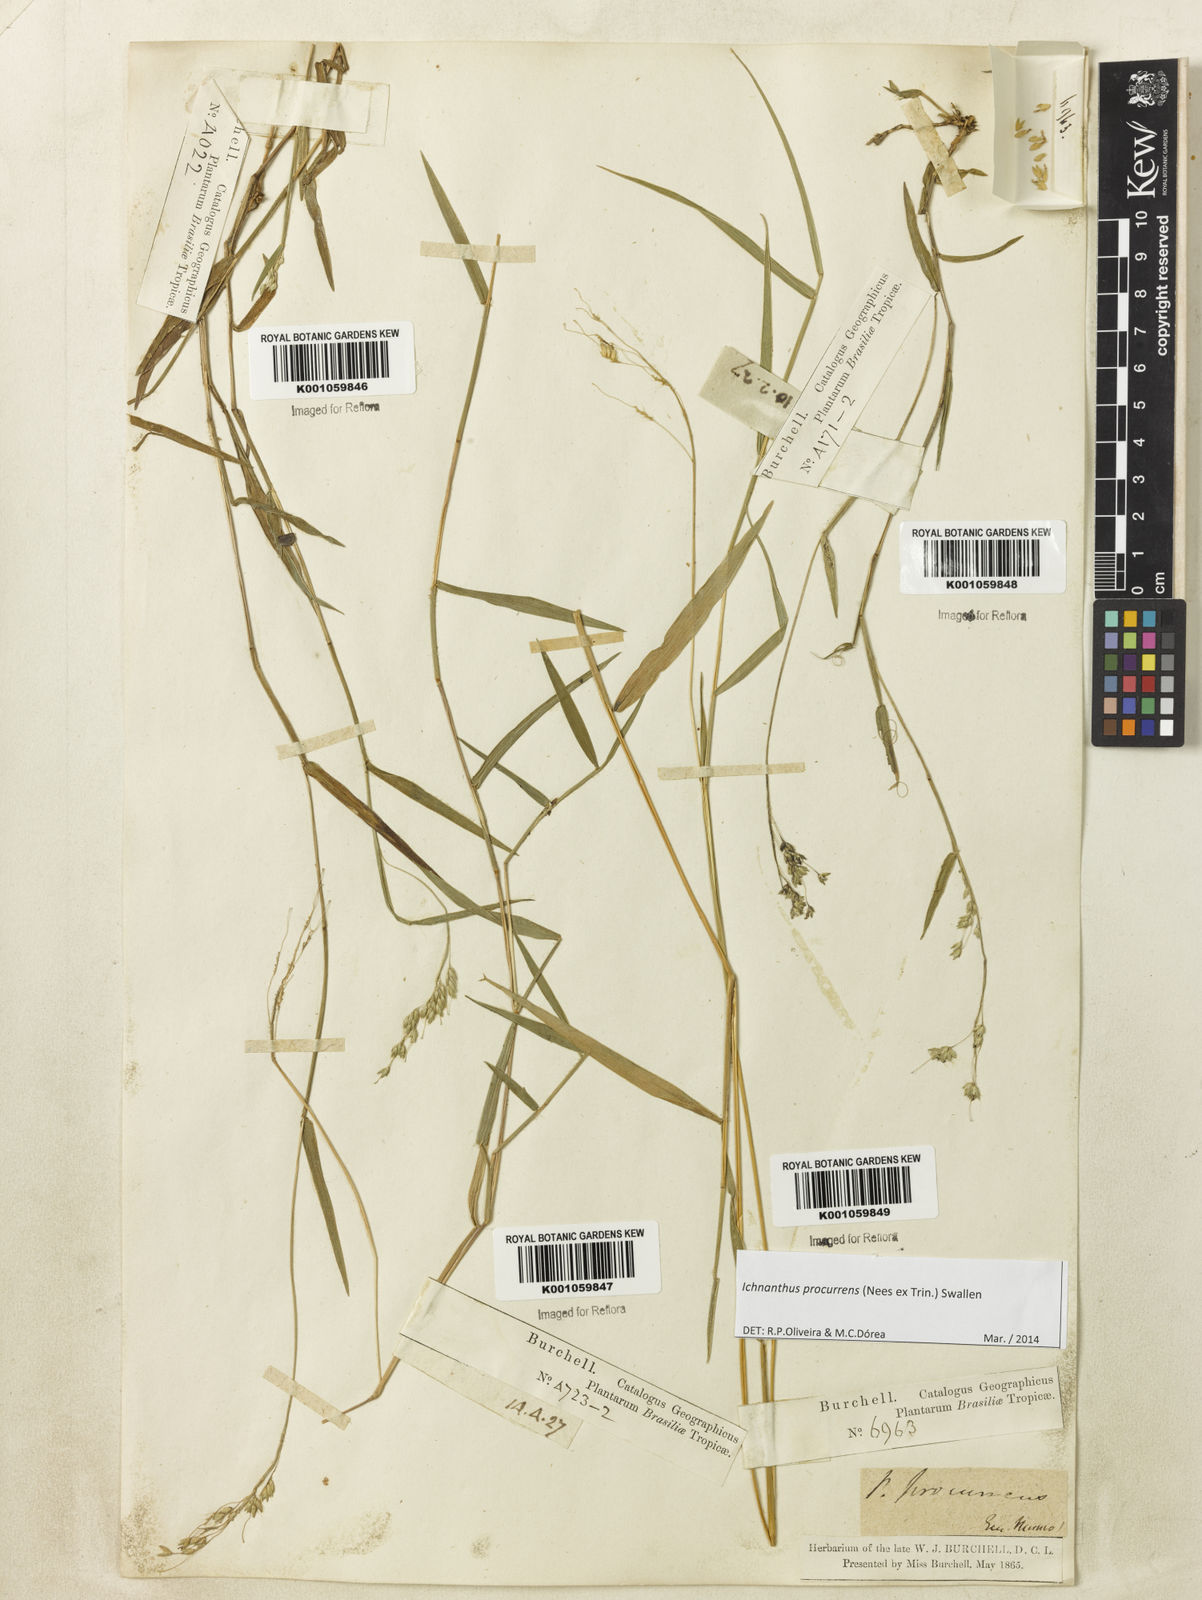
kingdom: Plantae
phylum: Tracheophyta
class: Liliopsida
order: Poales
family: Poaceae
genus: Oedochloa
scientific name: Oedochloa procurrens
